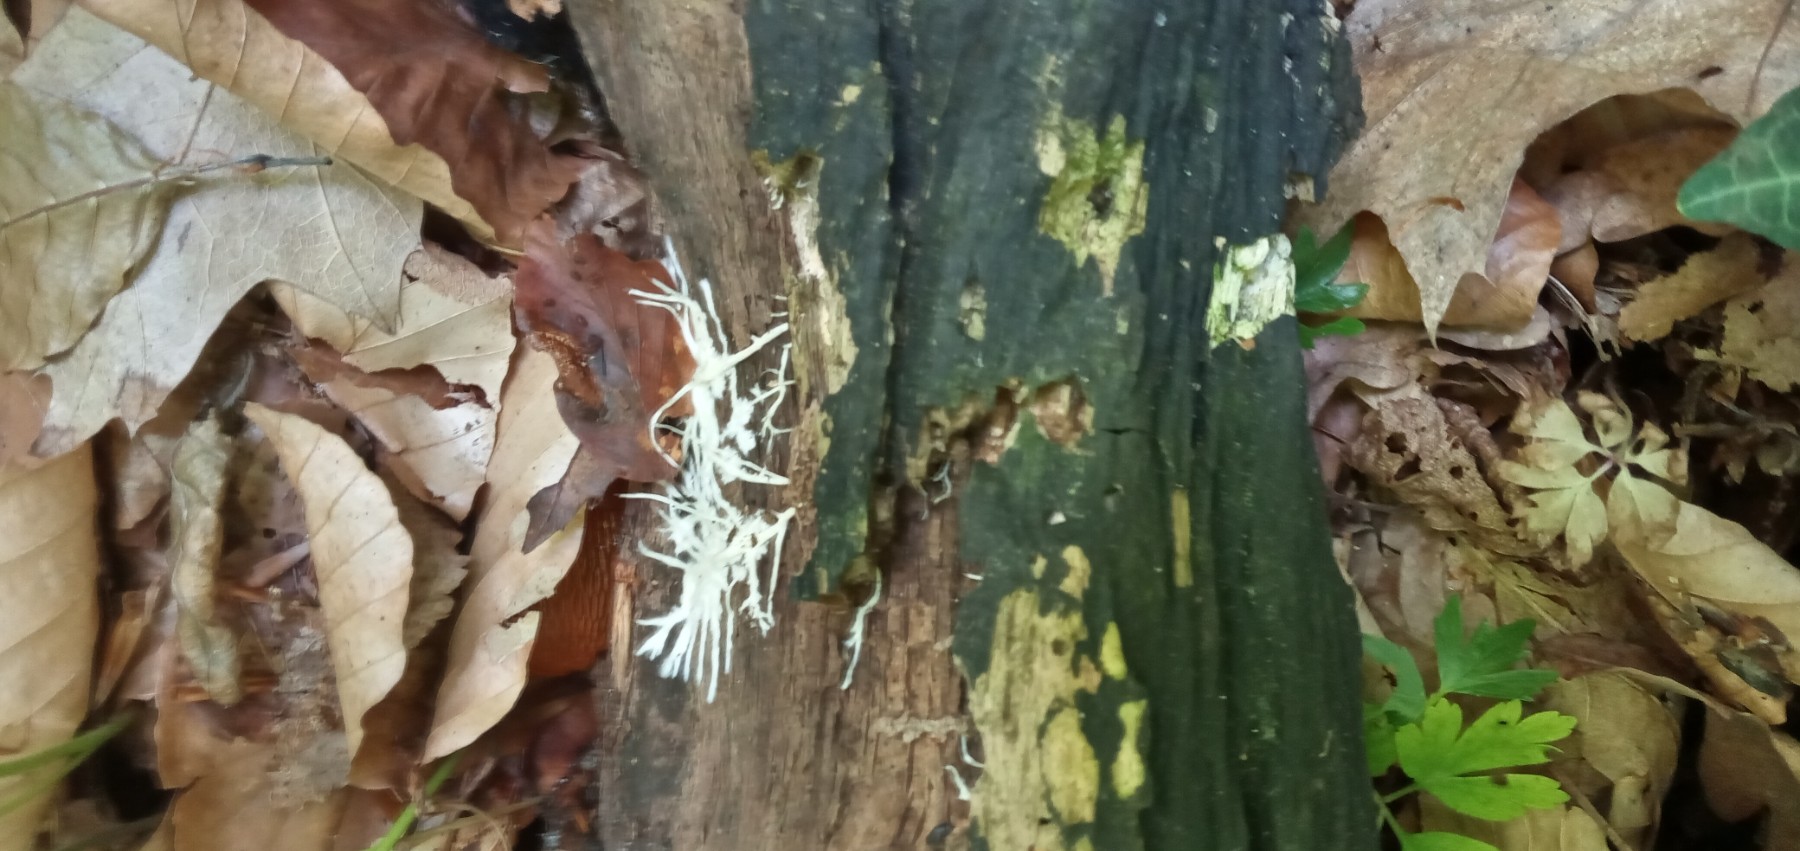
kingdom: Fungi
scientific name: Fungi
